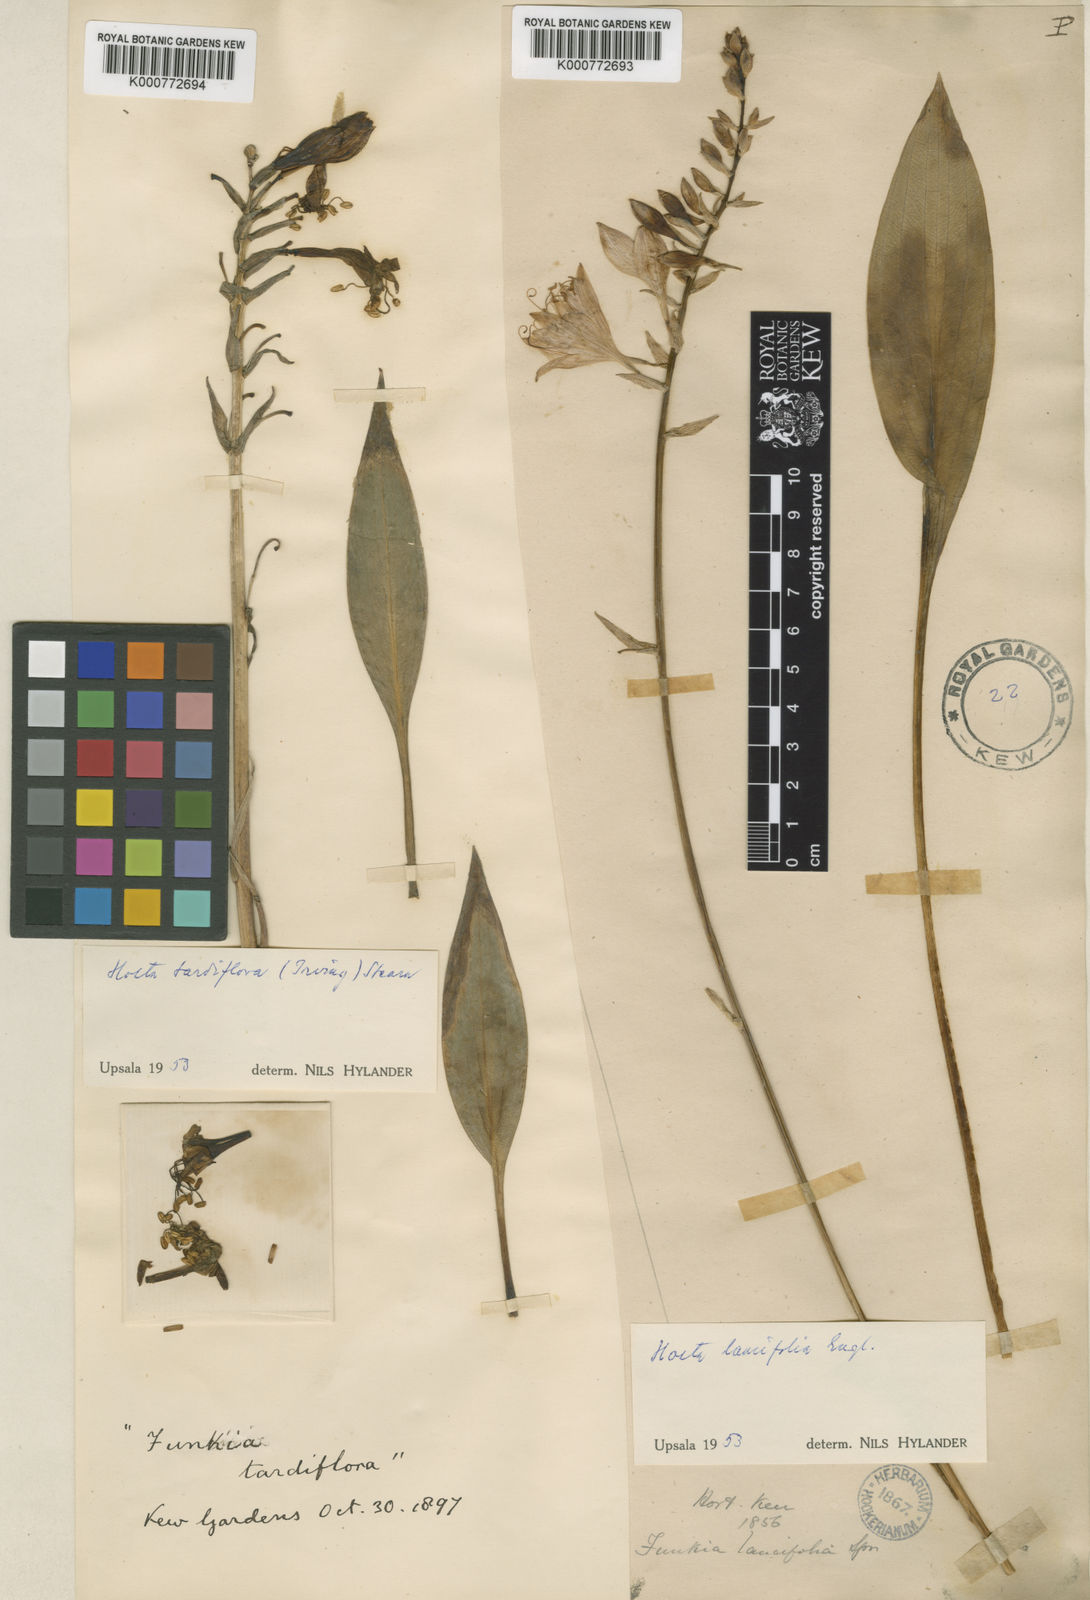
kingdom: Plantae
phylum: Tracheophyta
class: Liliopsida
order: Asparagales
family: Asparagaceae
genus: Hosta
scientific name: Hosta longipes
